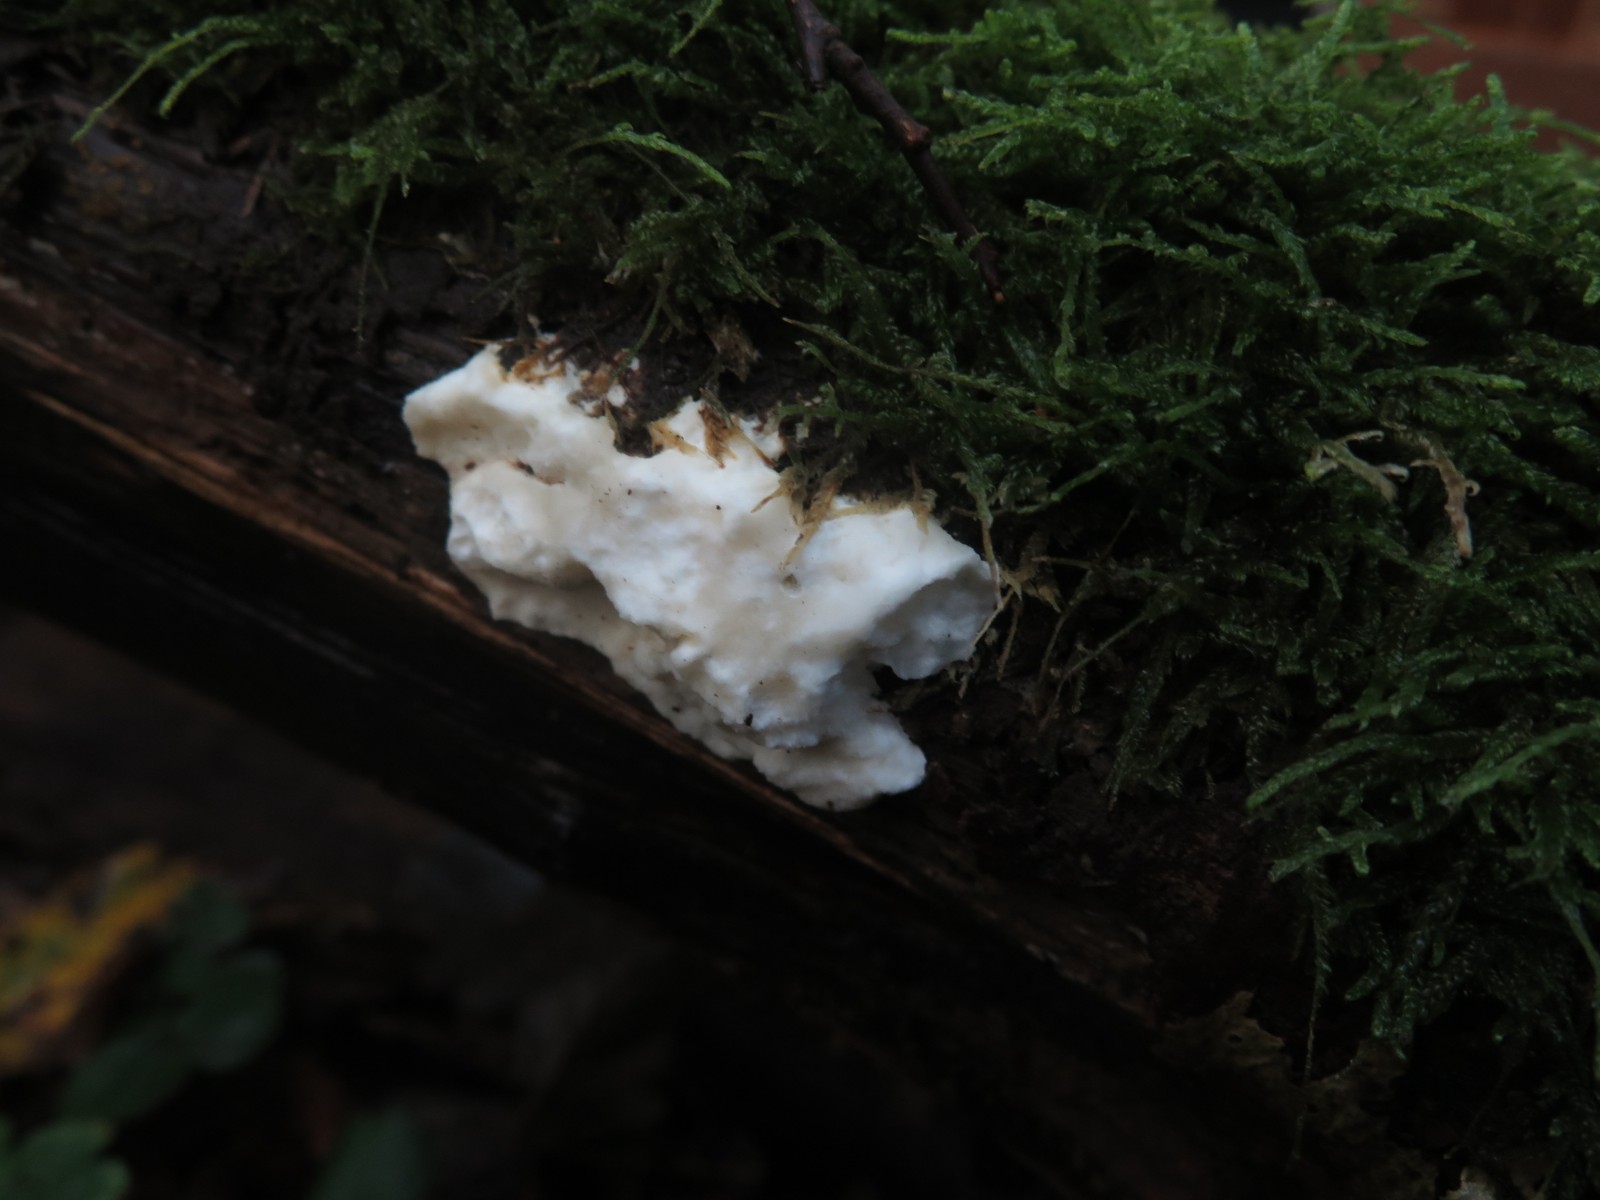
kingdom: Fungi
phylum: Basidiomycota
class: Agaricomycetes
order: Polyporales
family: Incrustoporiaceae
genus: Tyromyces
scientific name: Tyromyces lacteus
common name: mælkehvid kødporesvamp
